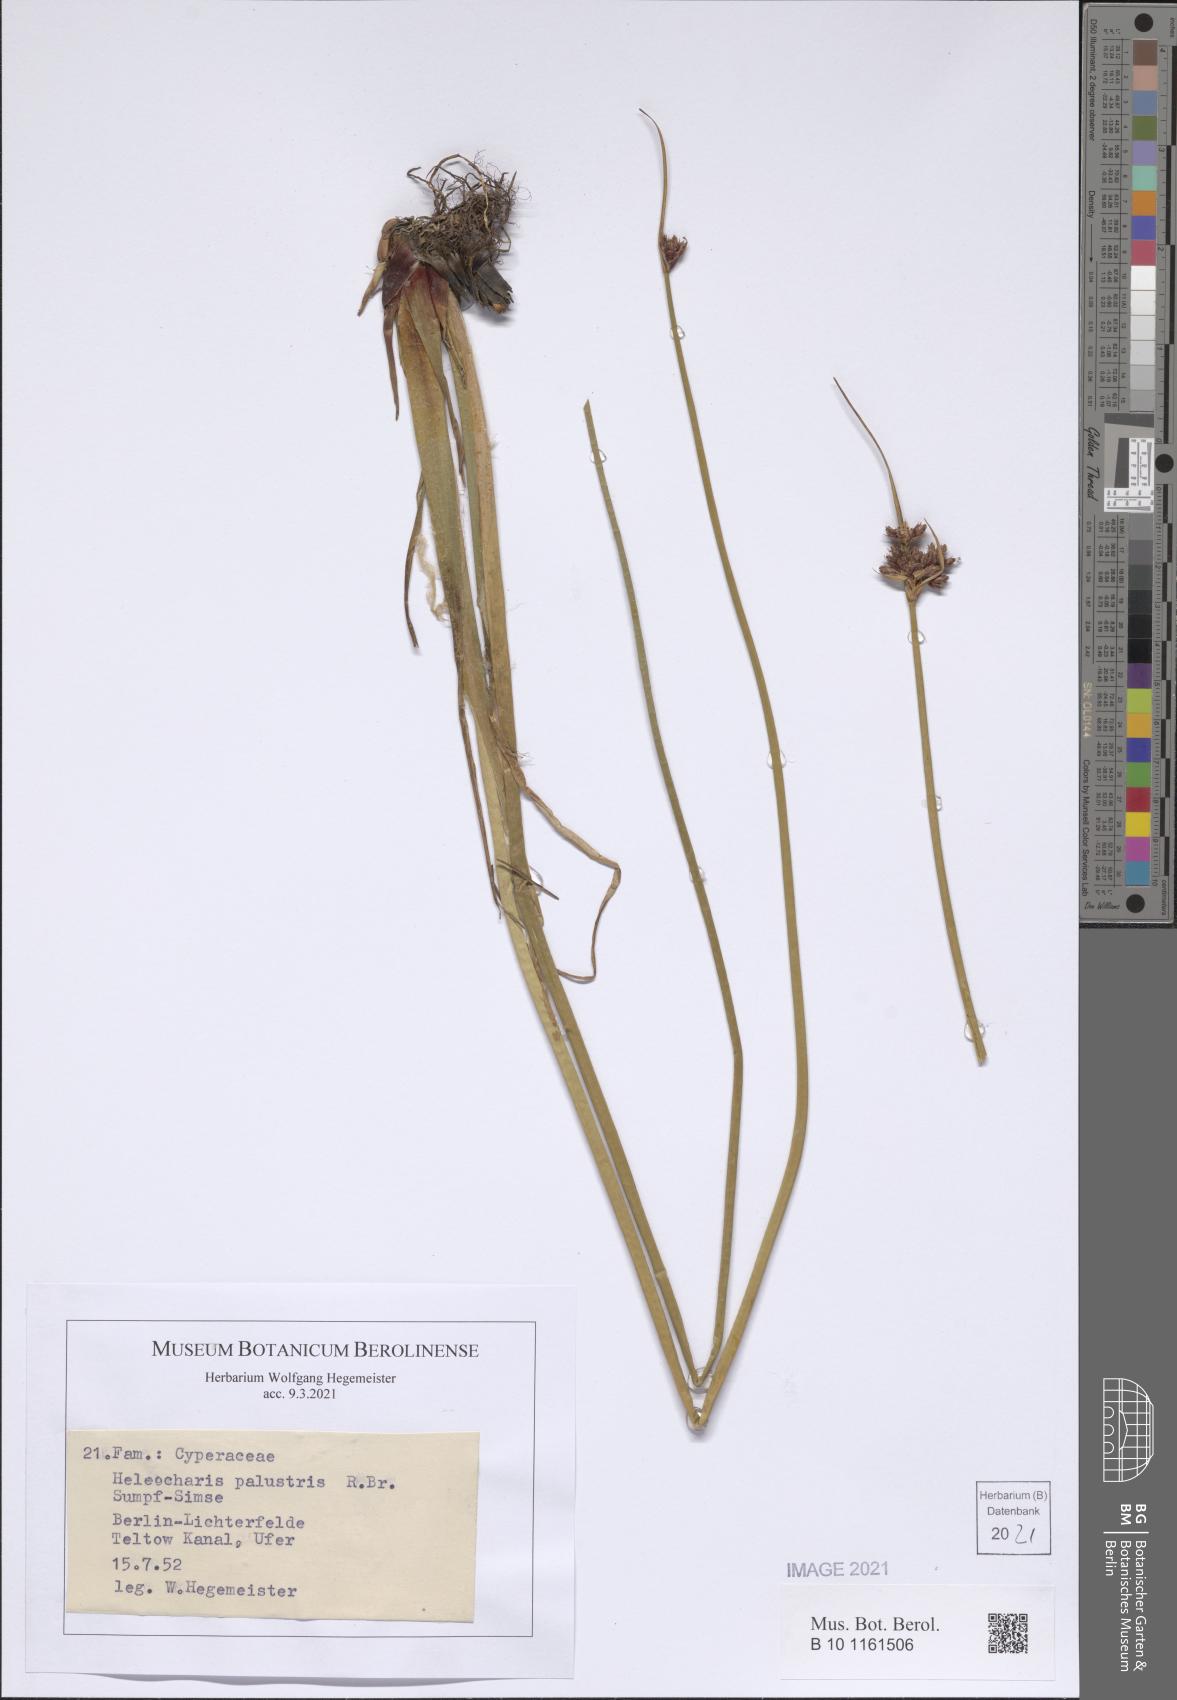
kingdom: Plantae
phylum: Tracheophyta
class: Liliopsida
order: Poales
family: Cyperaceae
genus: Eleocharis
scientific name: Eleocharis palustris
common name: Common spike-rush
